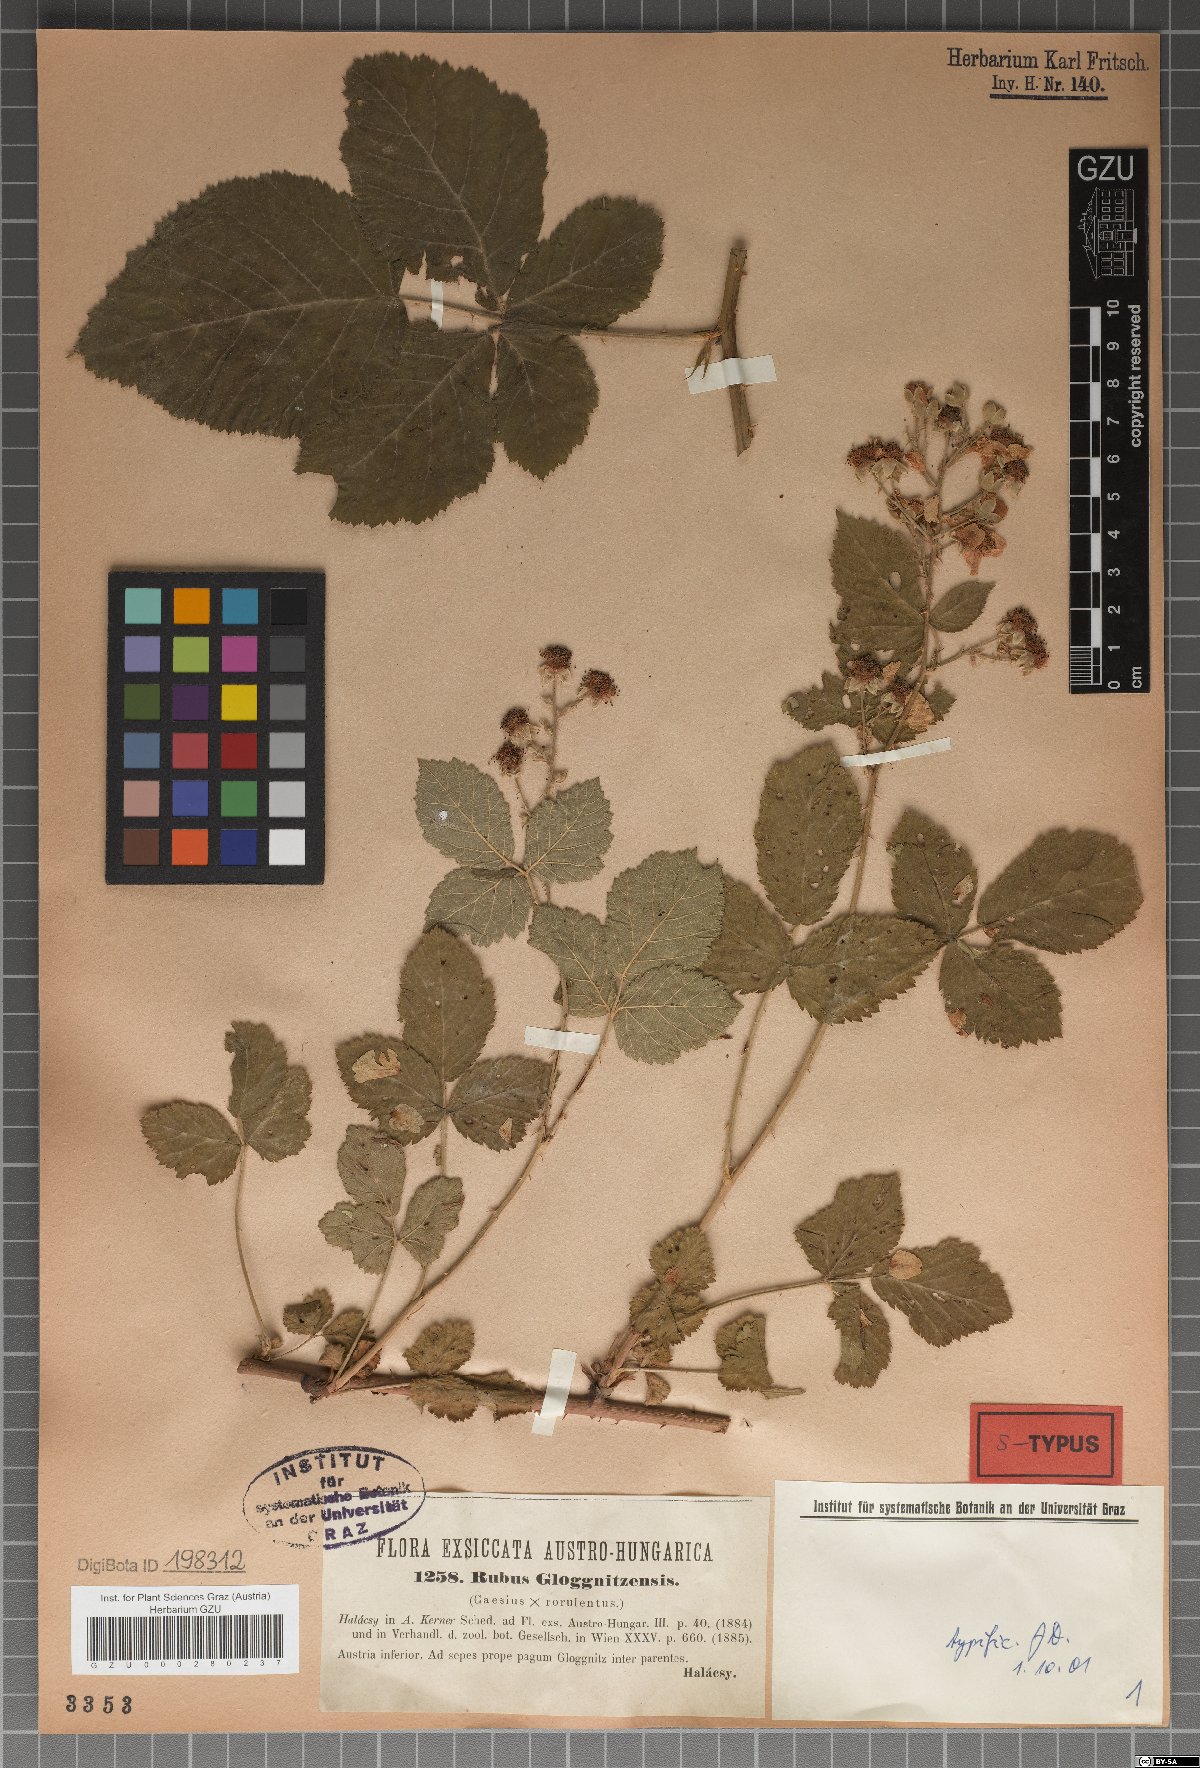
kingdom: Plantae
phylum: Tracheophyta
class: Magnoliopsida
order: Rosales
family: Rosaceae
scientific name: Rosaceae
